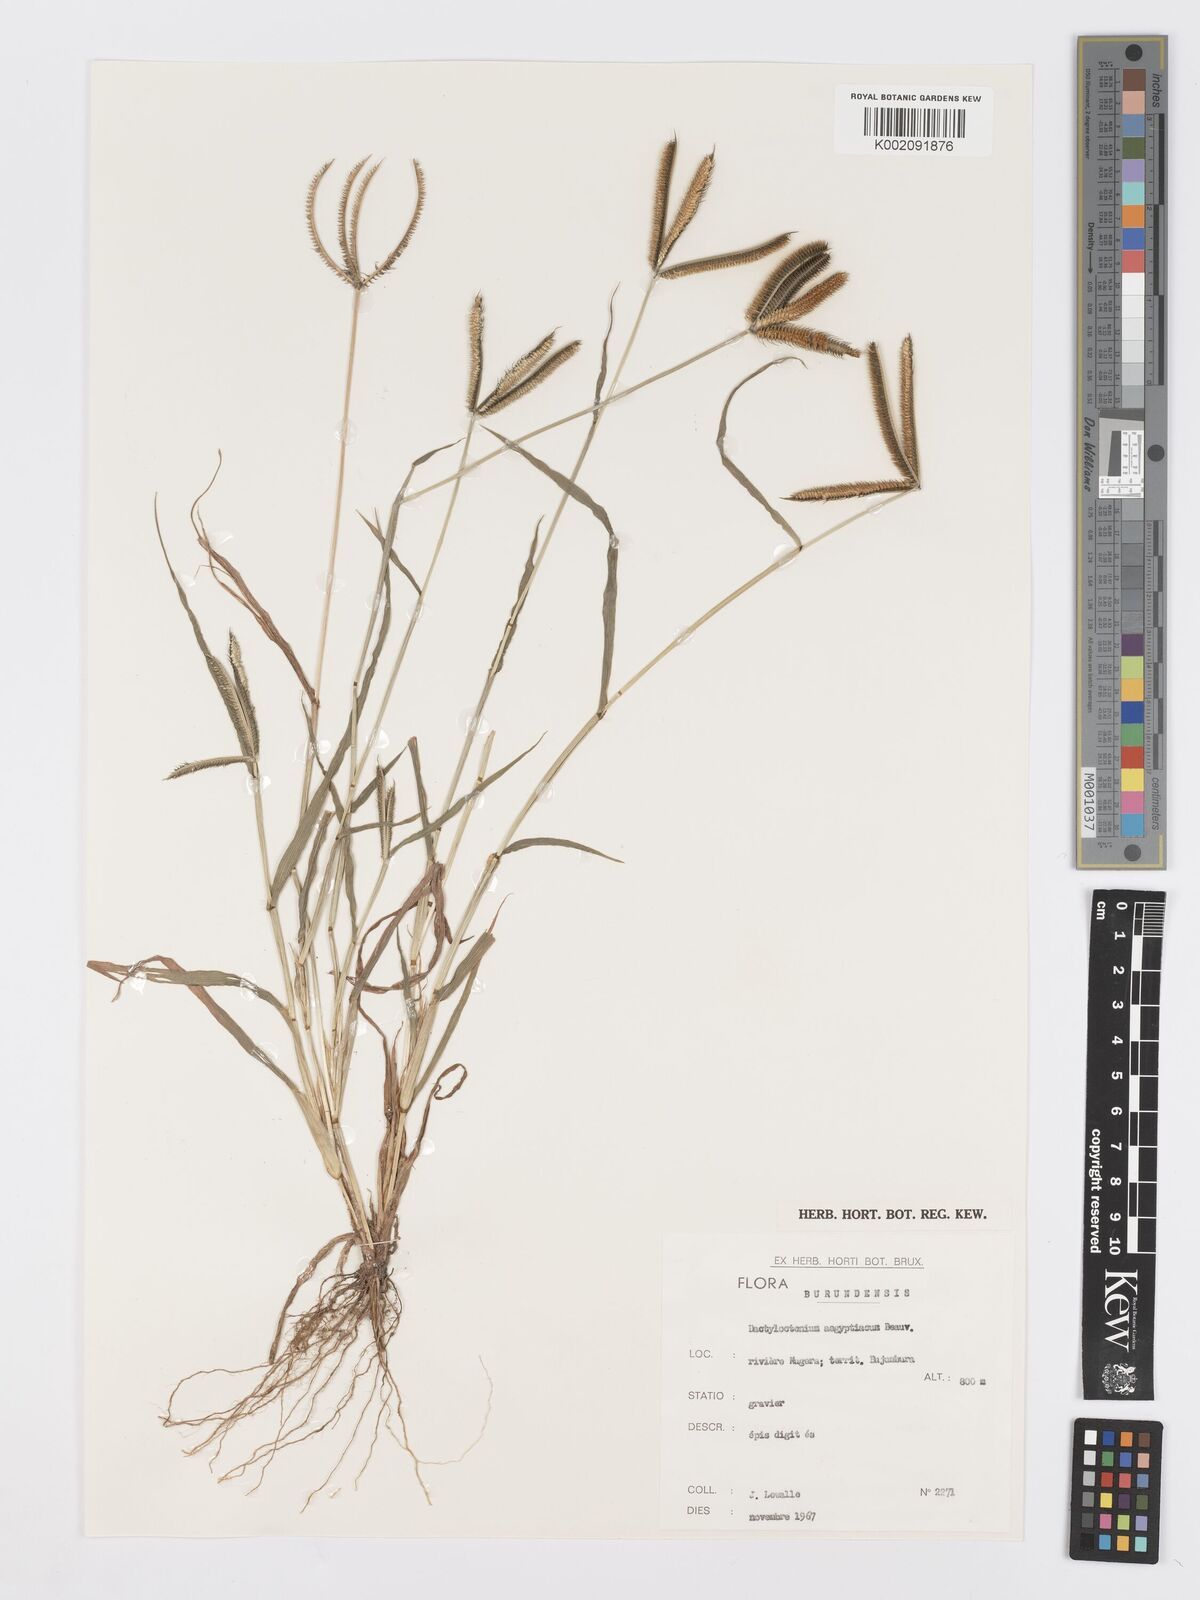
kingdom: Plantae
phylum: Tracheophyta
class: Liliopsida
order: Poales
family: Poaceae
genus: Dactyloctenium
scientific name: Dactyloctenium aegyptium
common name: Egyptian grass
